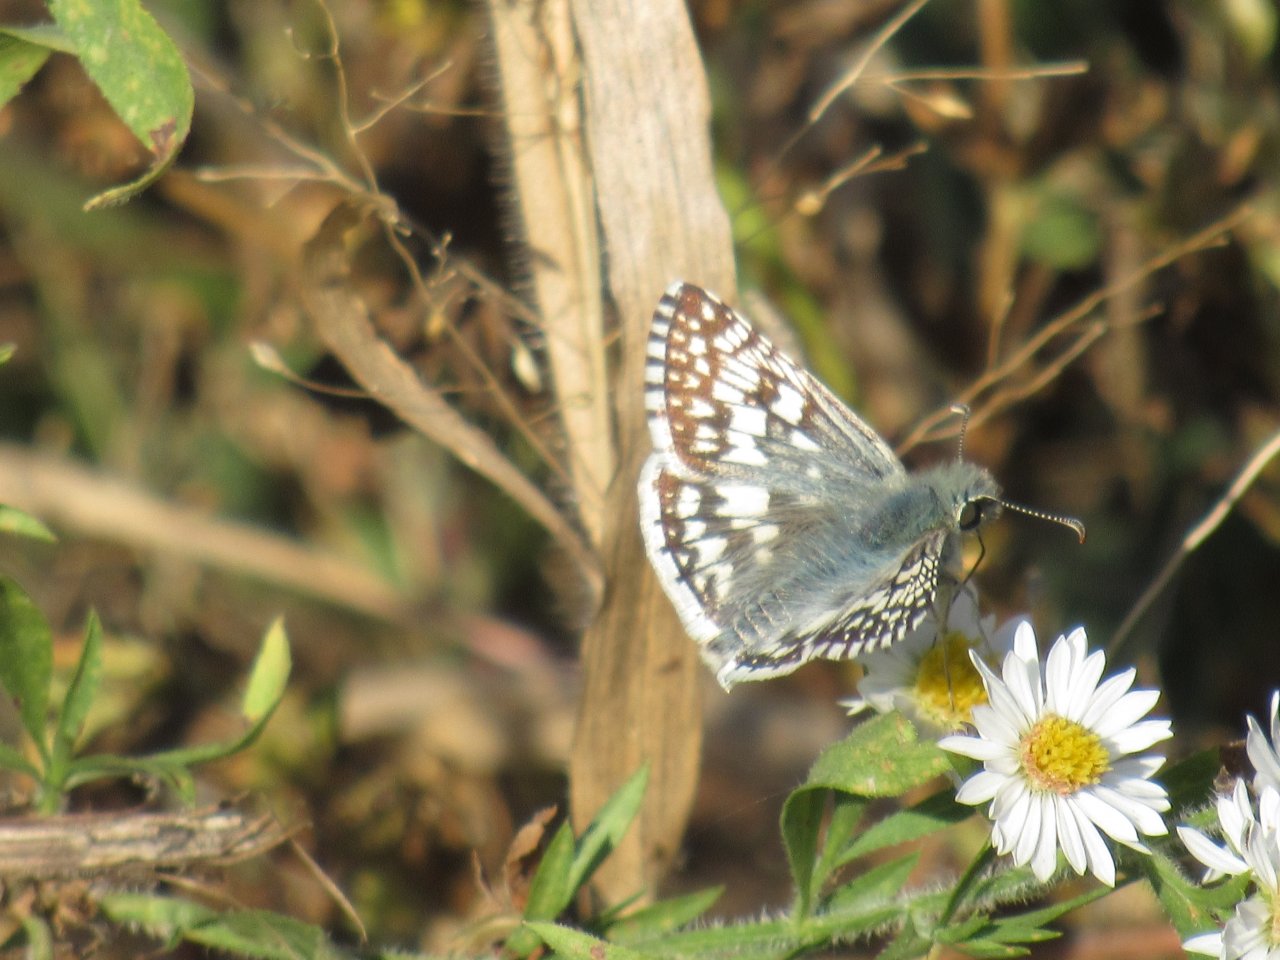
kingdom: Animalia
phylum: Arthropoda
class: Insecta
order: Lepidoptera
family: Hesperiidae
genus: Pyrgus
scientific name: Pyrgus communis
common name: Common Checkered-Skipper
